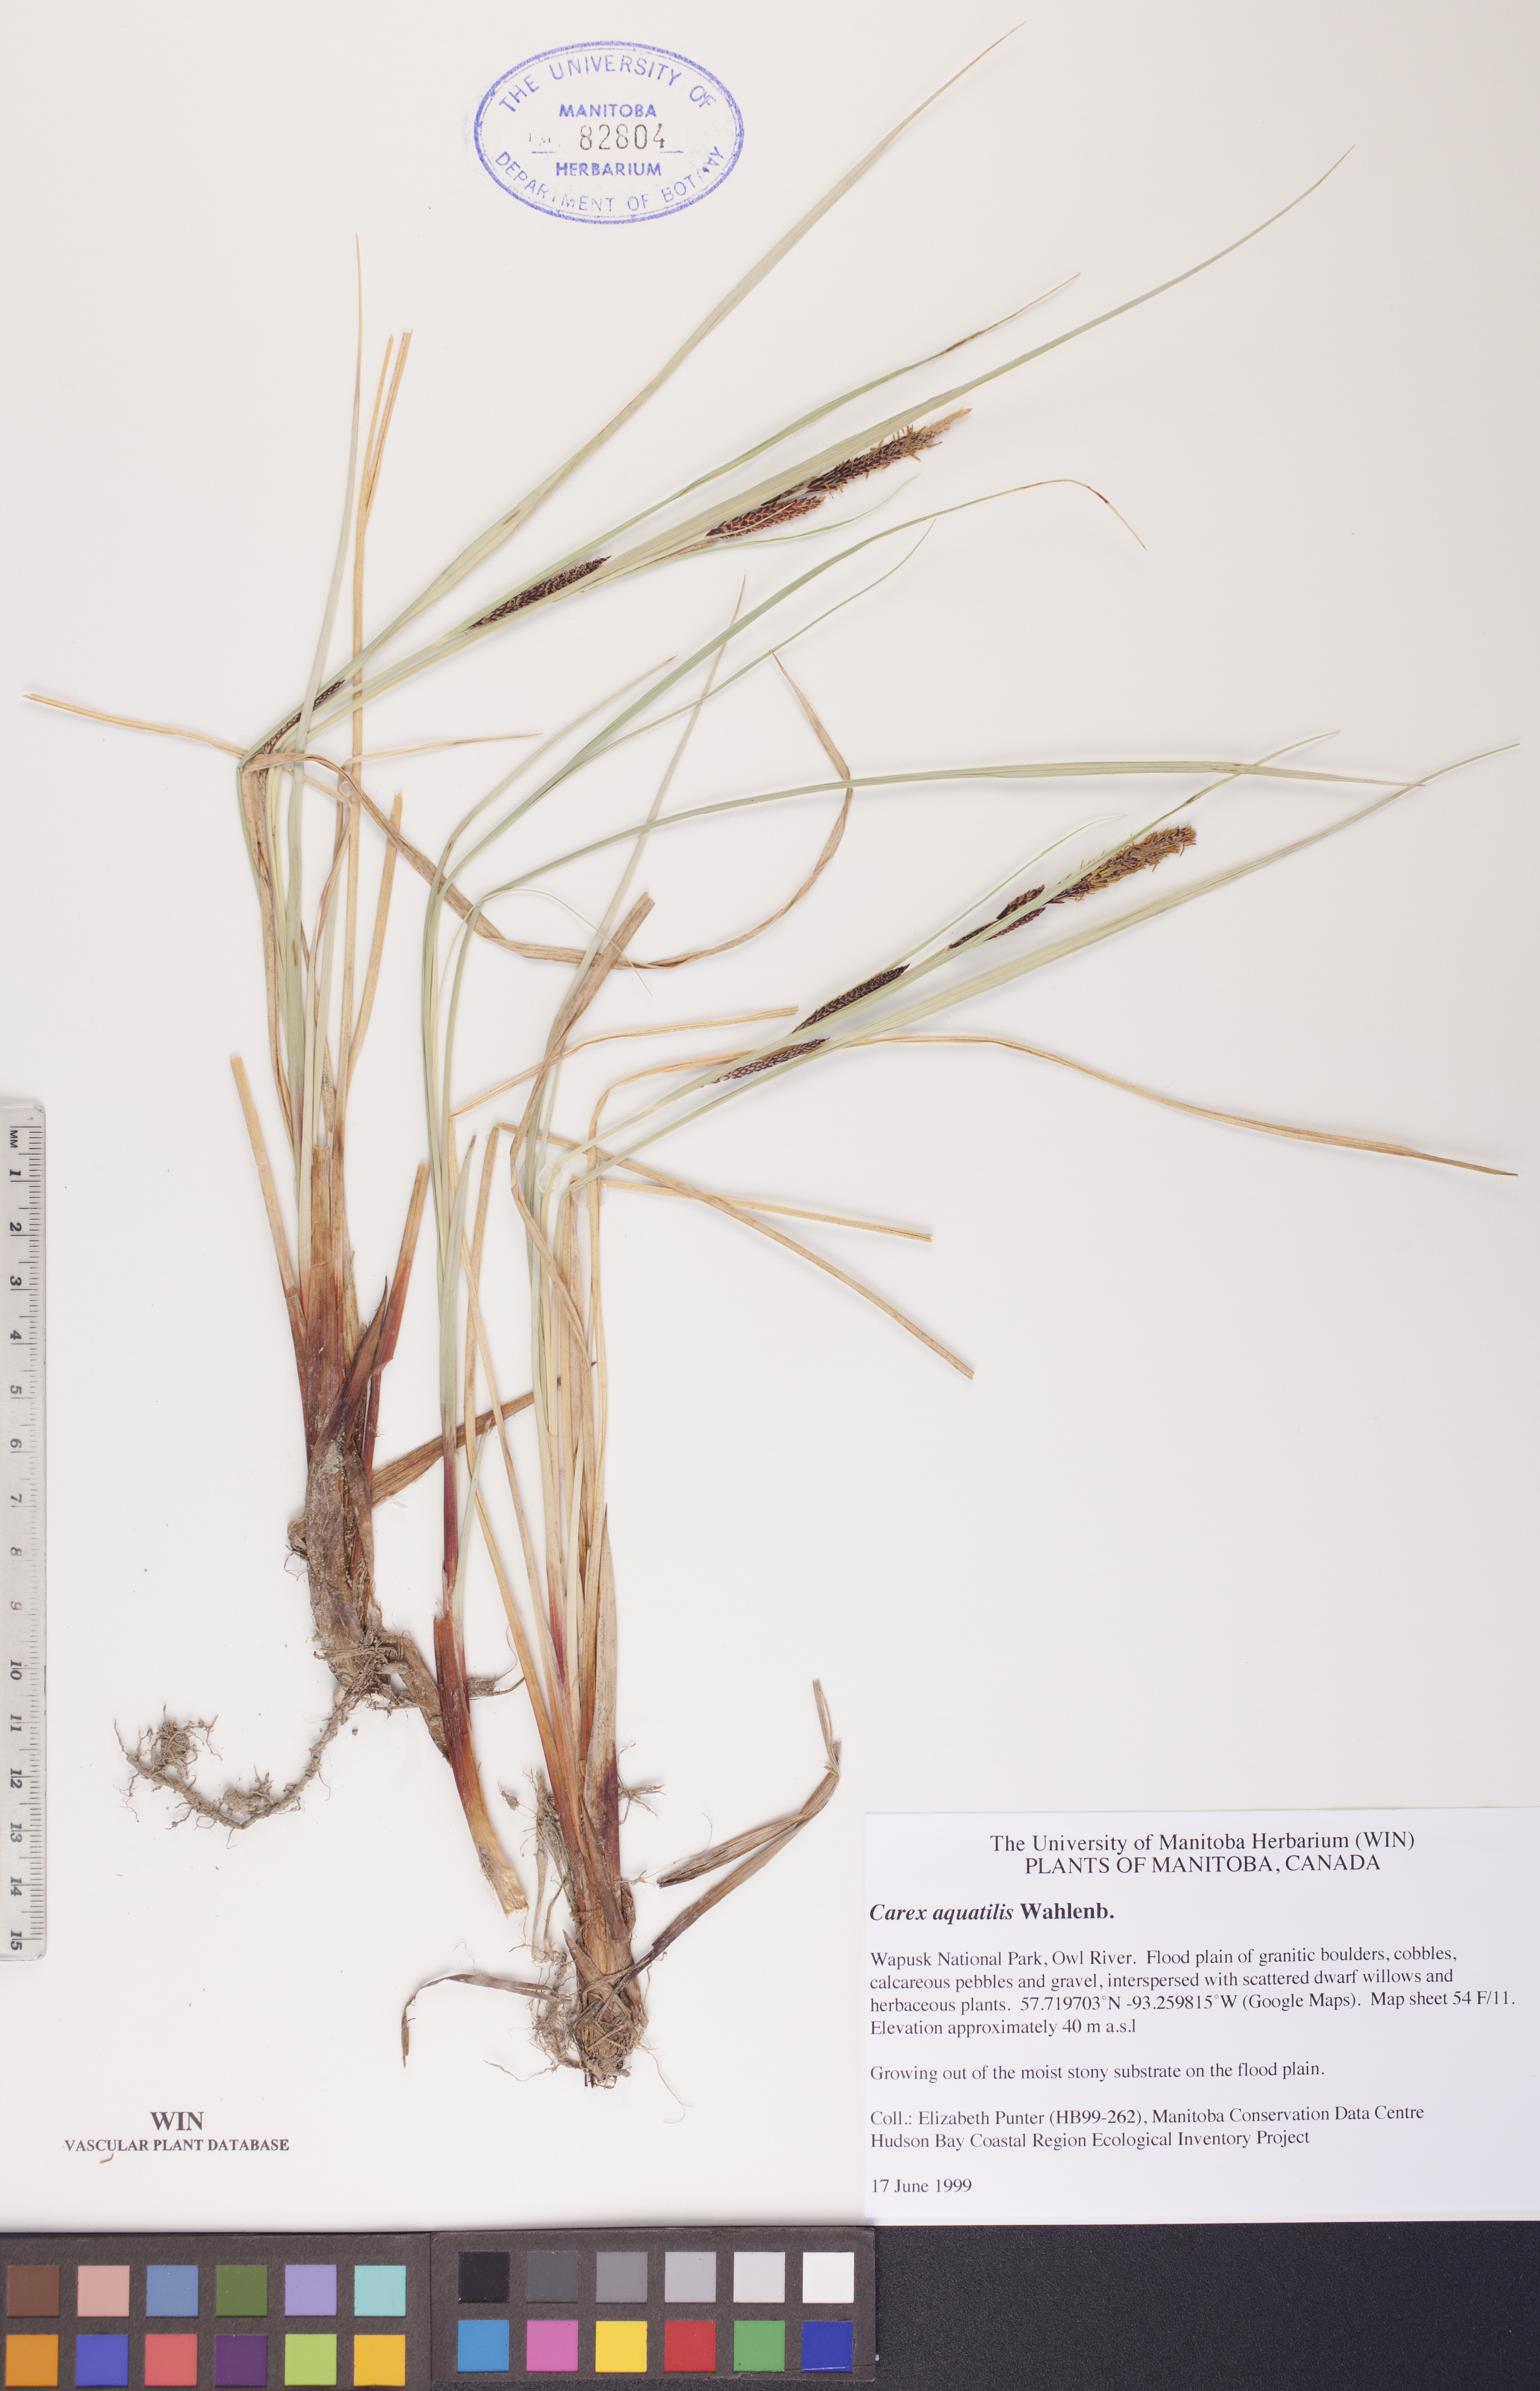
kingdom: Plantae
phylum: Tracheophyta
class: Liliopsida
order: Poales
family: Cyperaceae
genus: Carex
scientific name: Carex aquatilis
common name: Water sedge
